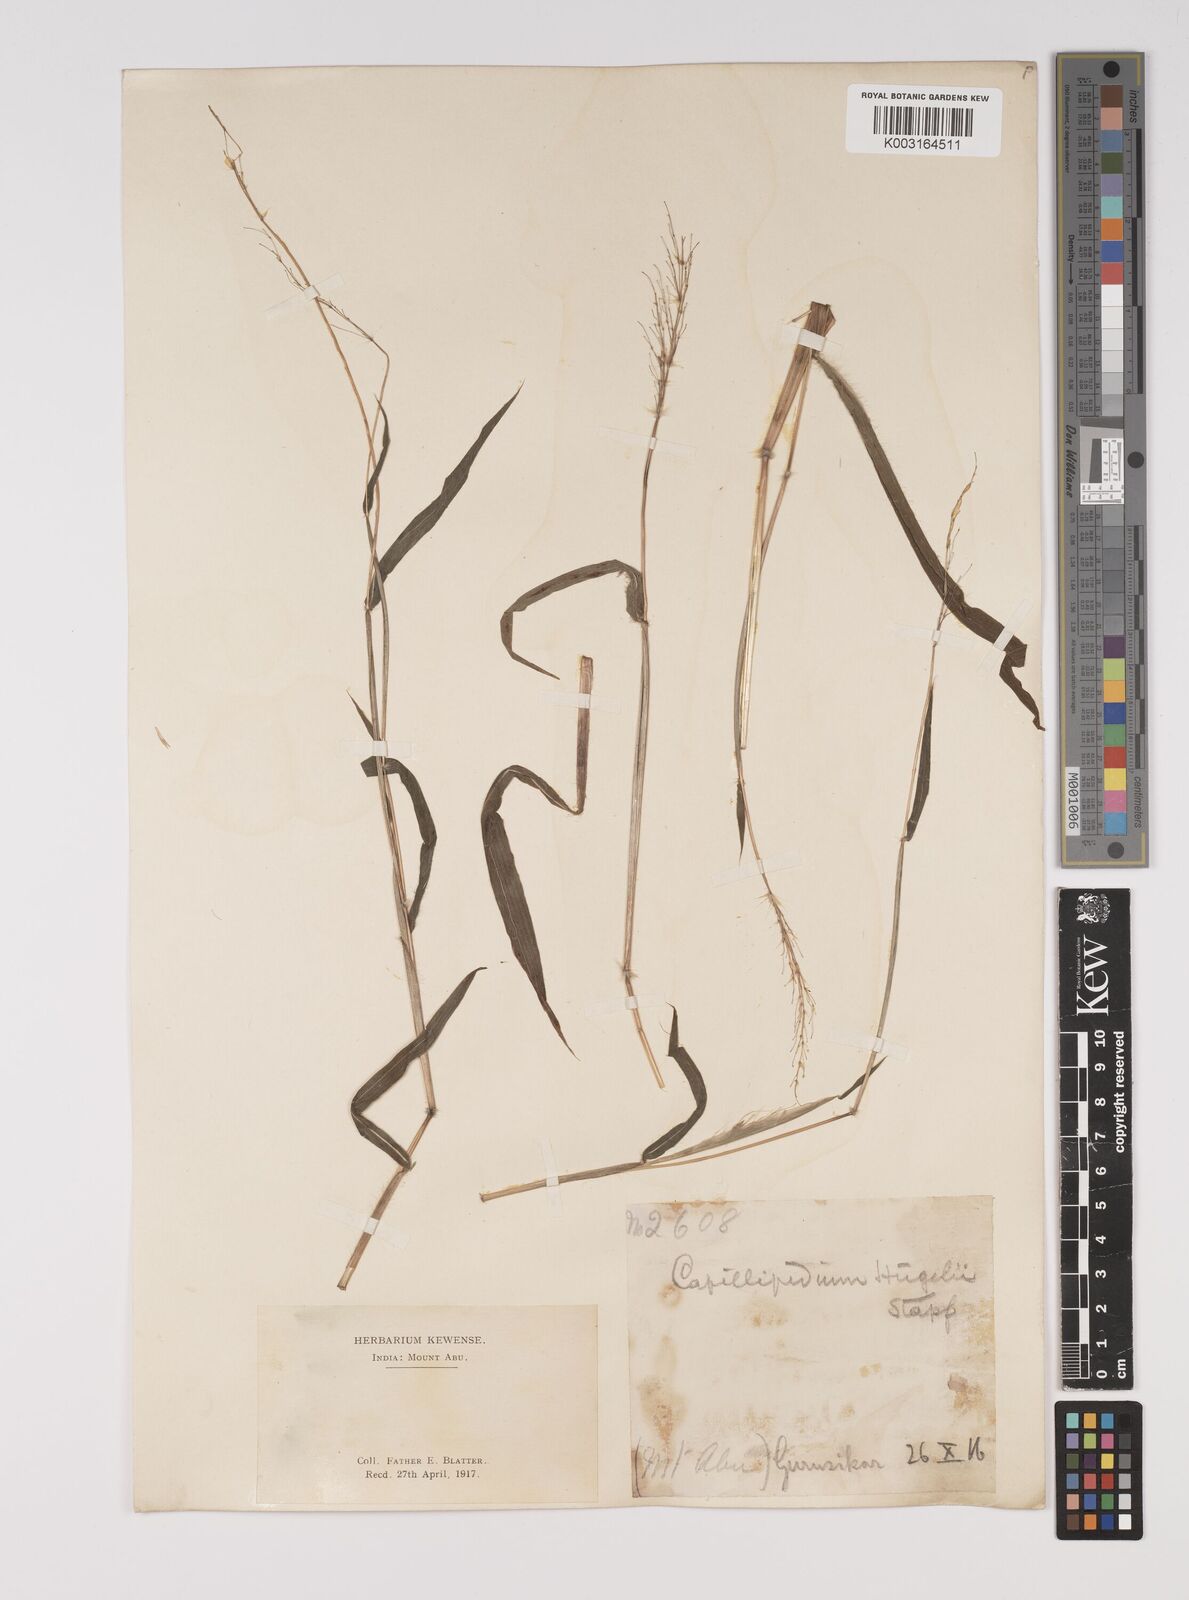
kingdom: Plantae
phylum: Tracheophyta
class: Liliopsida
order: Poales
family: Poaceae
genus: Capillipedium
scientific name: Capillipedium huegelii
